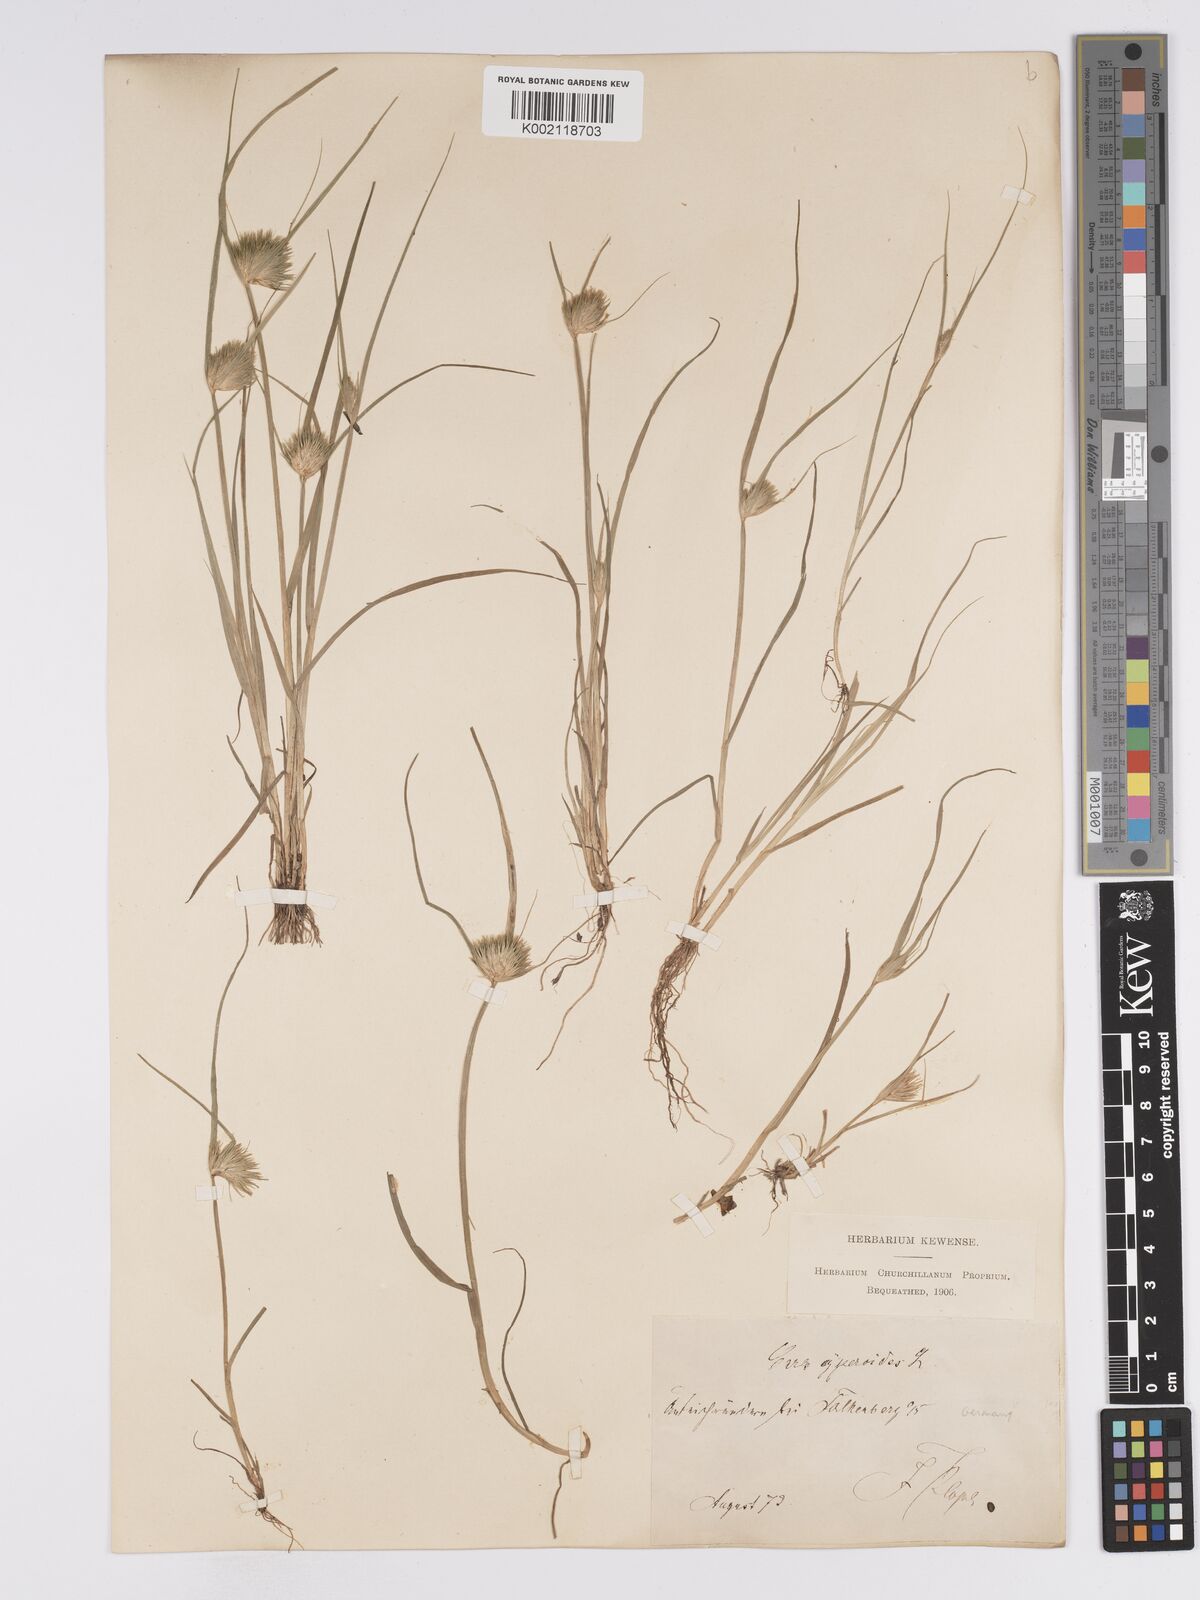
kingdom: Plantae
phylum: Tracheophyta
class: Liliopsida
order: Poales
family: Cyperaceae
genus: Carex
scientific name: Carex bohemica
